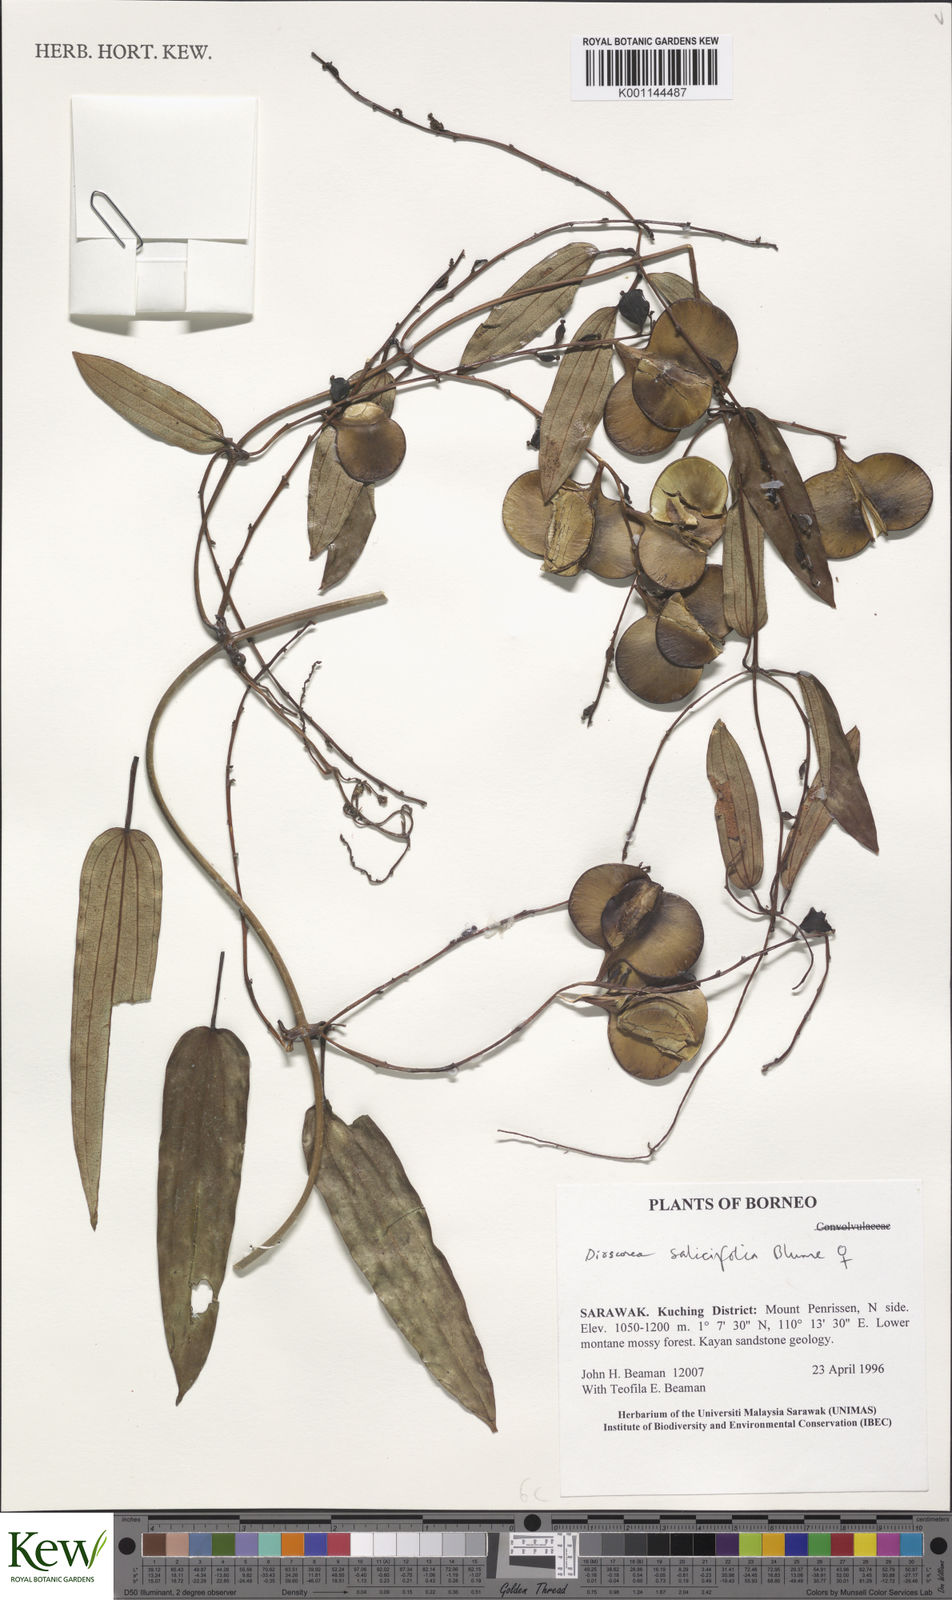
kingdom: Plantae
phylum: Tracheophyta
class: Liliopsida
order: Dioscoreales
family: Dioscoreaceae
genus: Dioscorea
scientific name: Dioscorea salicifolia
